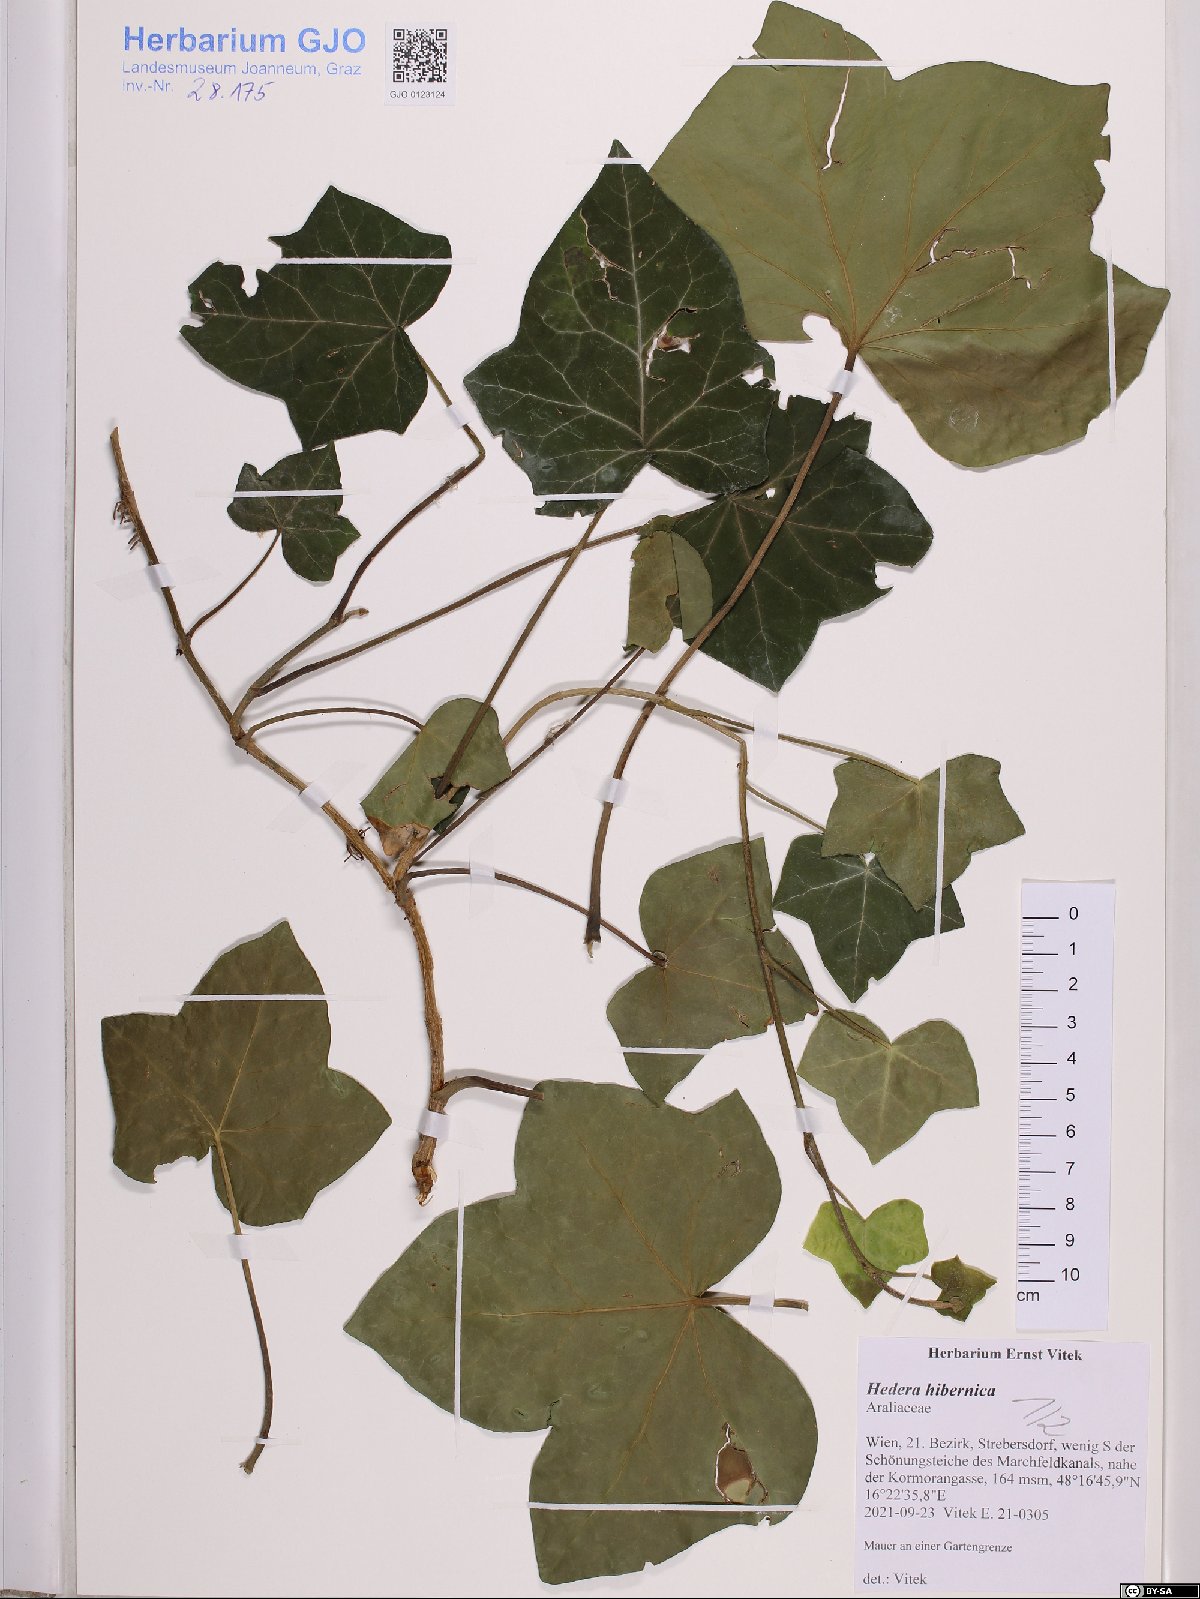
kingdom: Plantae
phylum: Tracheophyta
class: Magnoliopsida
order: Apiales
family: Araliaceae
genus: Hedera
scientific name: Hedera hibernica
